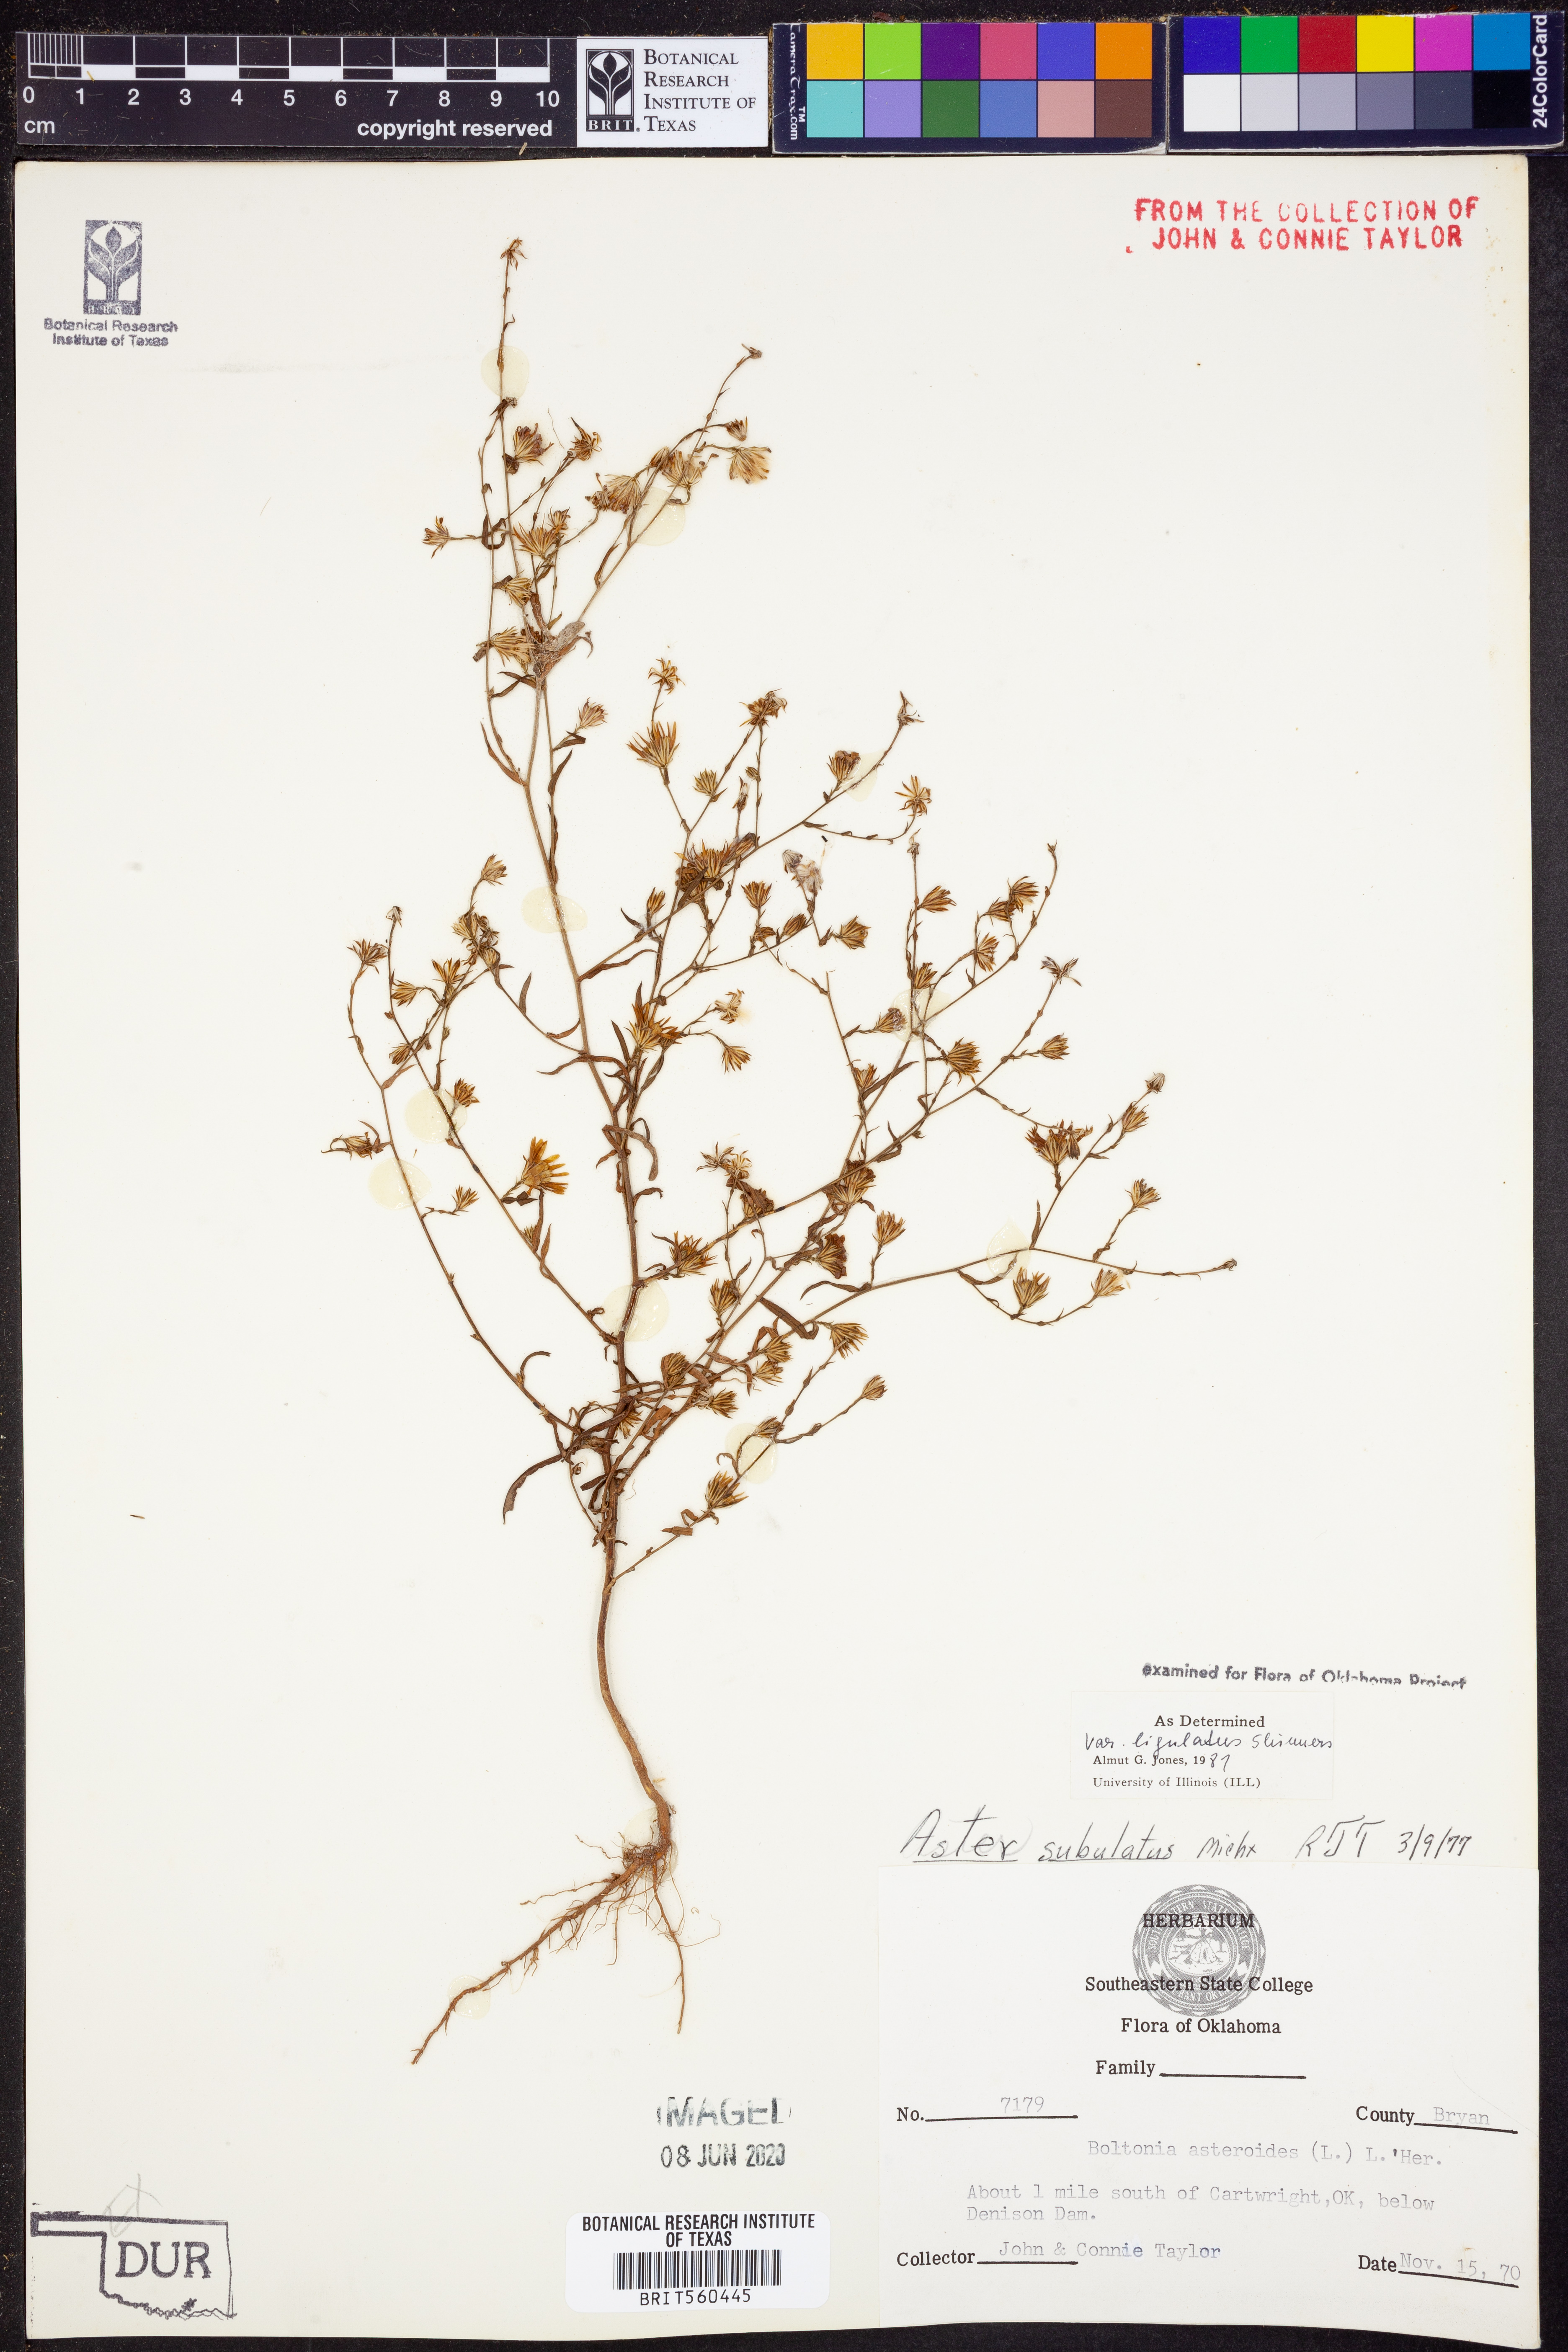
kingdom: Plantae
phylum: Tracheophyta
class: Magnoliopsida
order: Asterales
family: Asteraceae
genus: Symphyotrichum
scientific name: Symphyotrichum divaricatum
